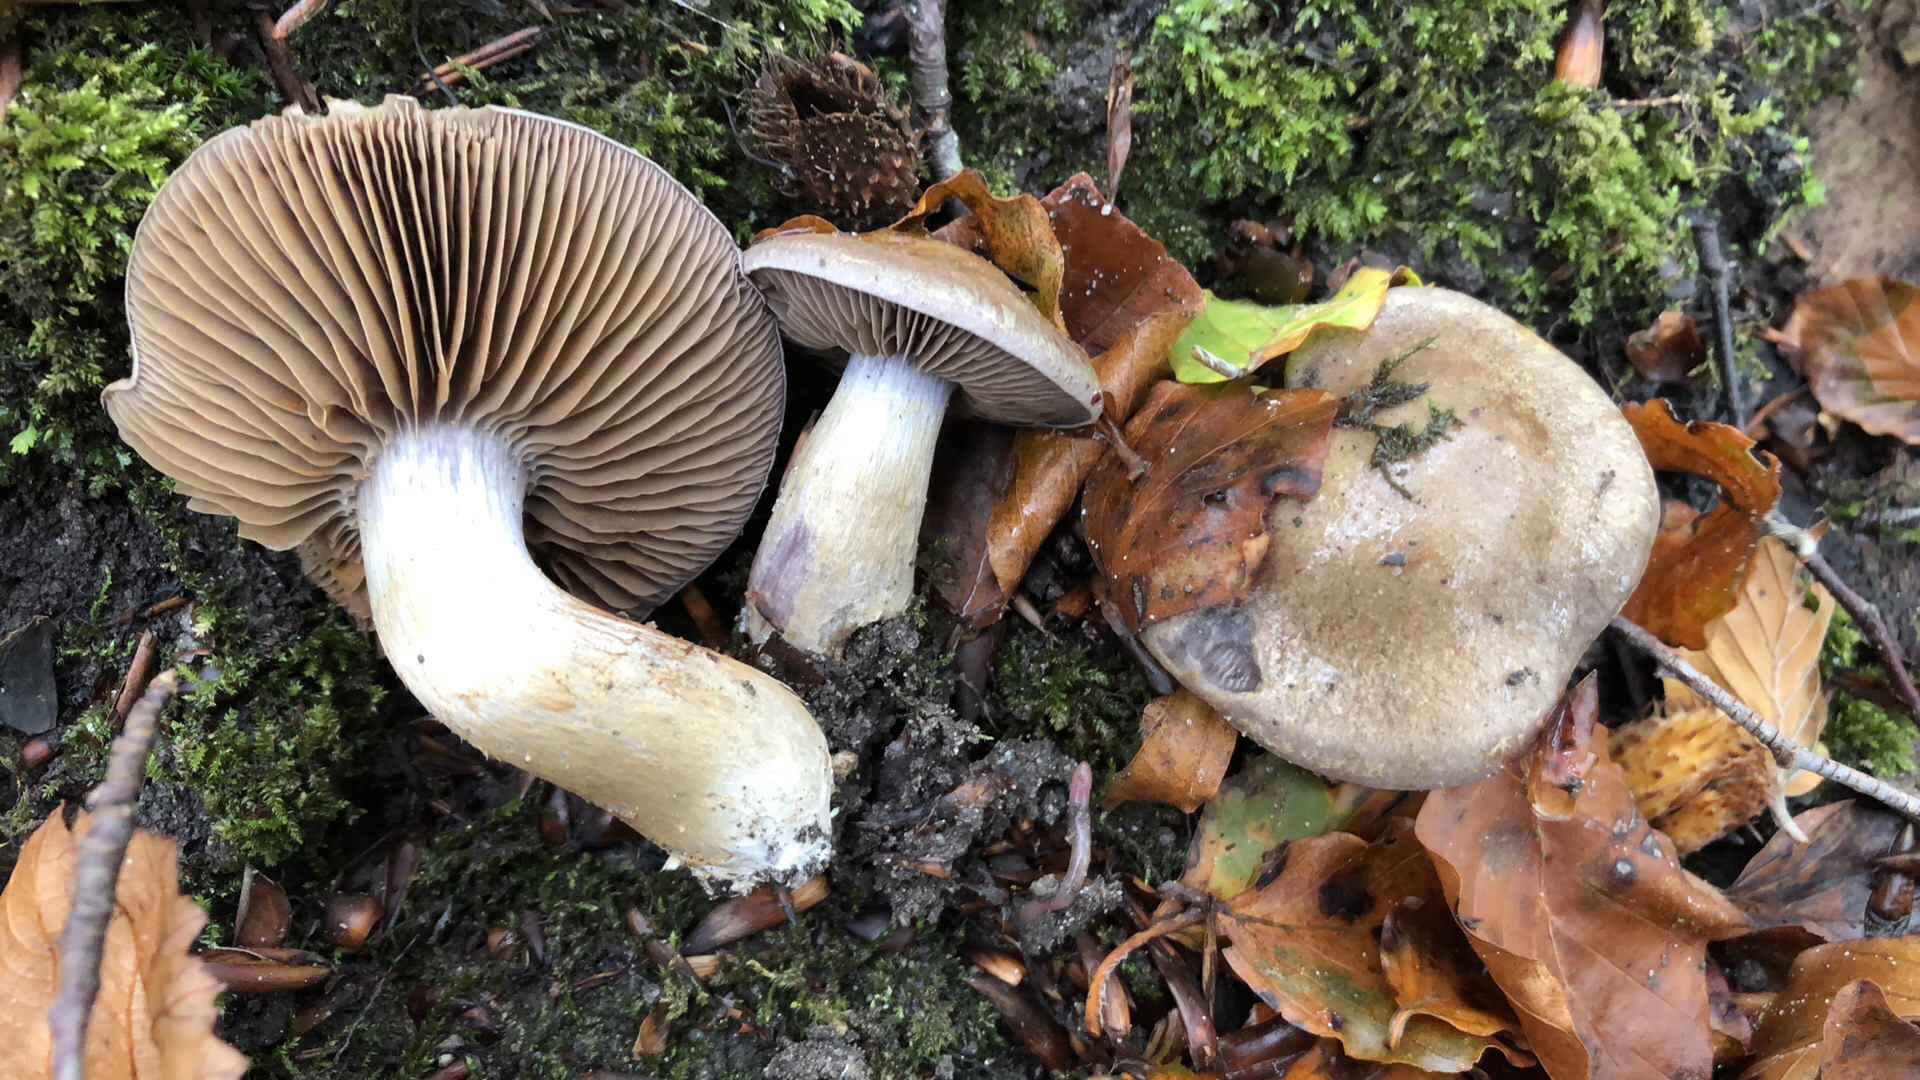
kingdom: Fungi
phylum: Basidiomycota
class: Agaricomycetes
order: Agaricales
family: Cortinariaceae
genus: Cortinarius
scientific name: Cortinarius
